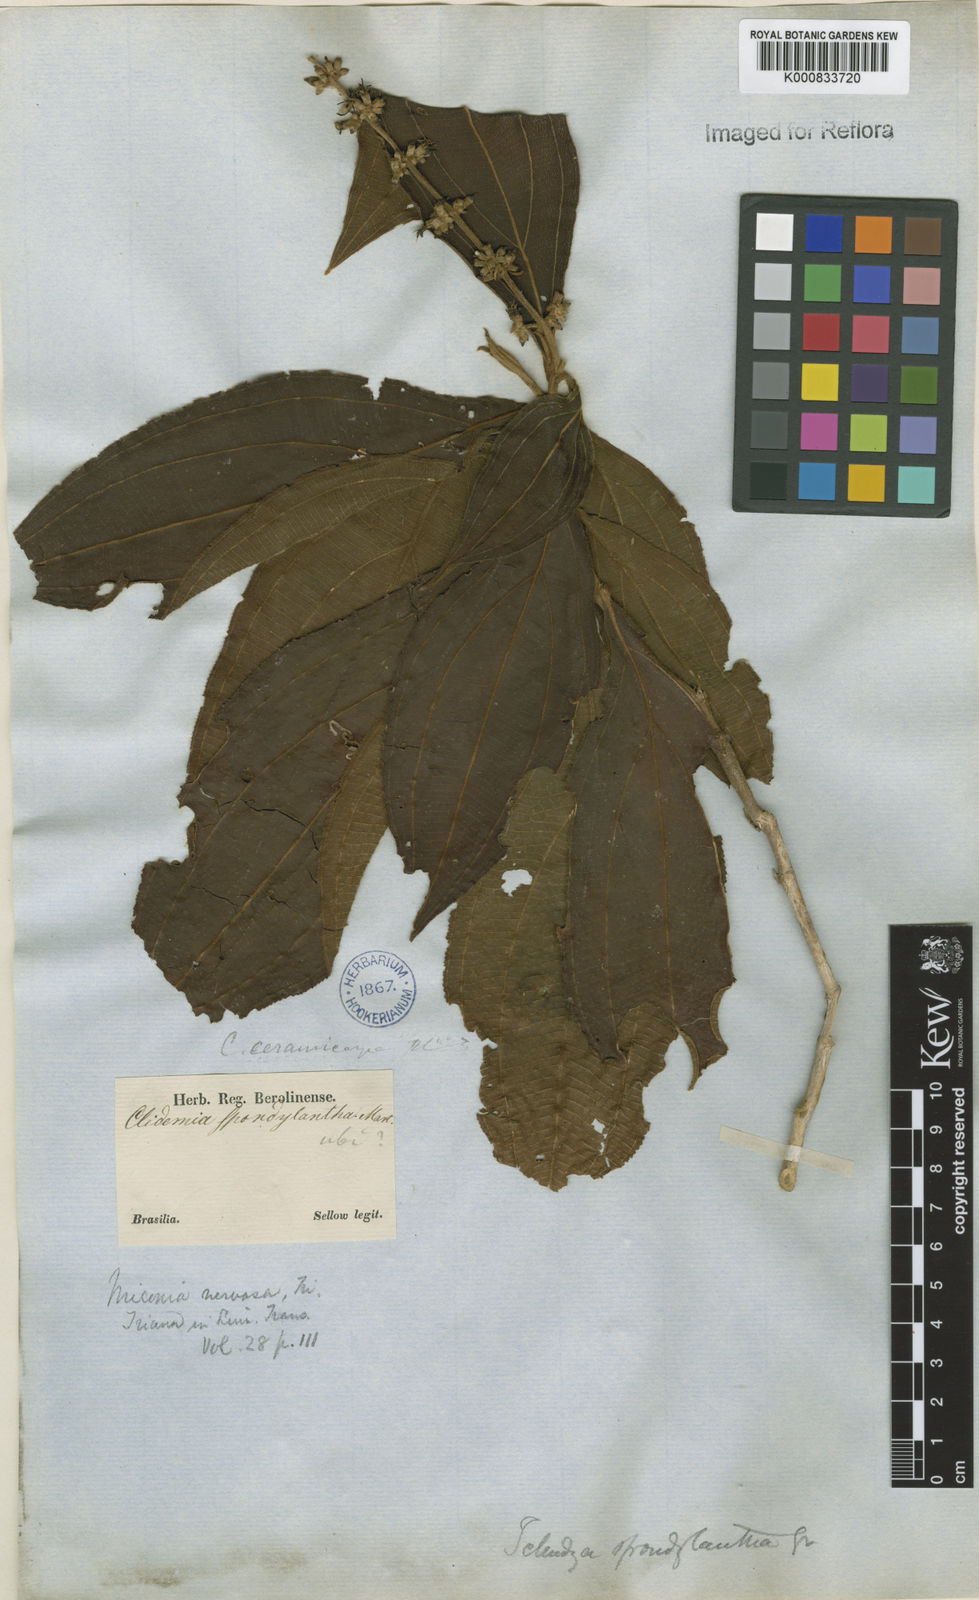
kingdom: Plantae
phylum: Tracheophyta
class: Magnoliopsida
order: Myrtales
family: Melastomataceae
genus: Miconia
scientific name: Miconia nervosa
